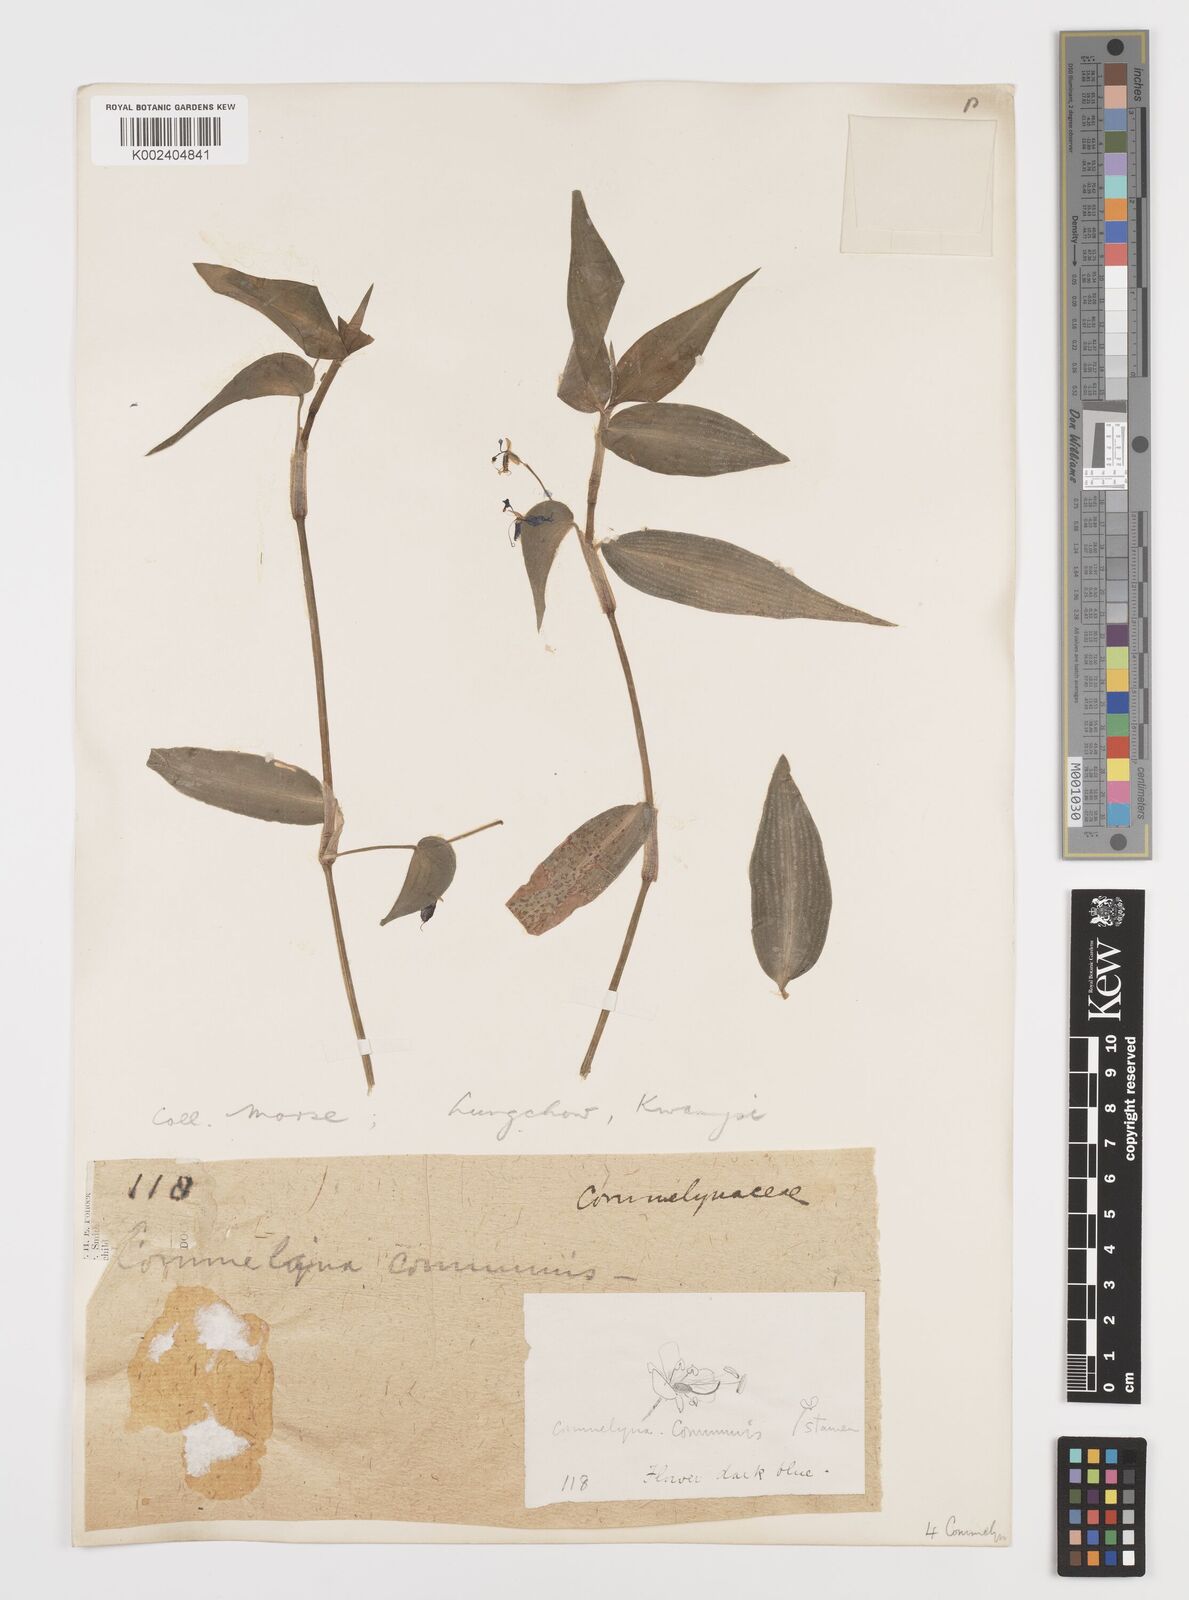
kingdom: Plantae
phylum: Tracheophyta
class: Liliopsida
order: Commelinales
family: Commelinaceae
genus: Commelina
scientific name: Commelina
